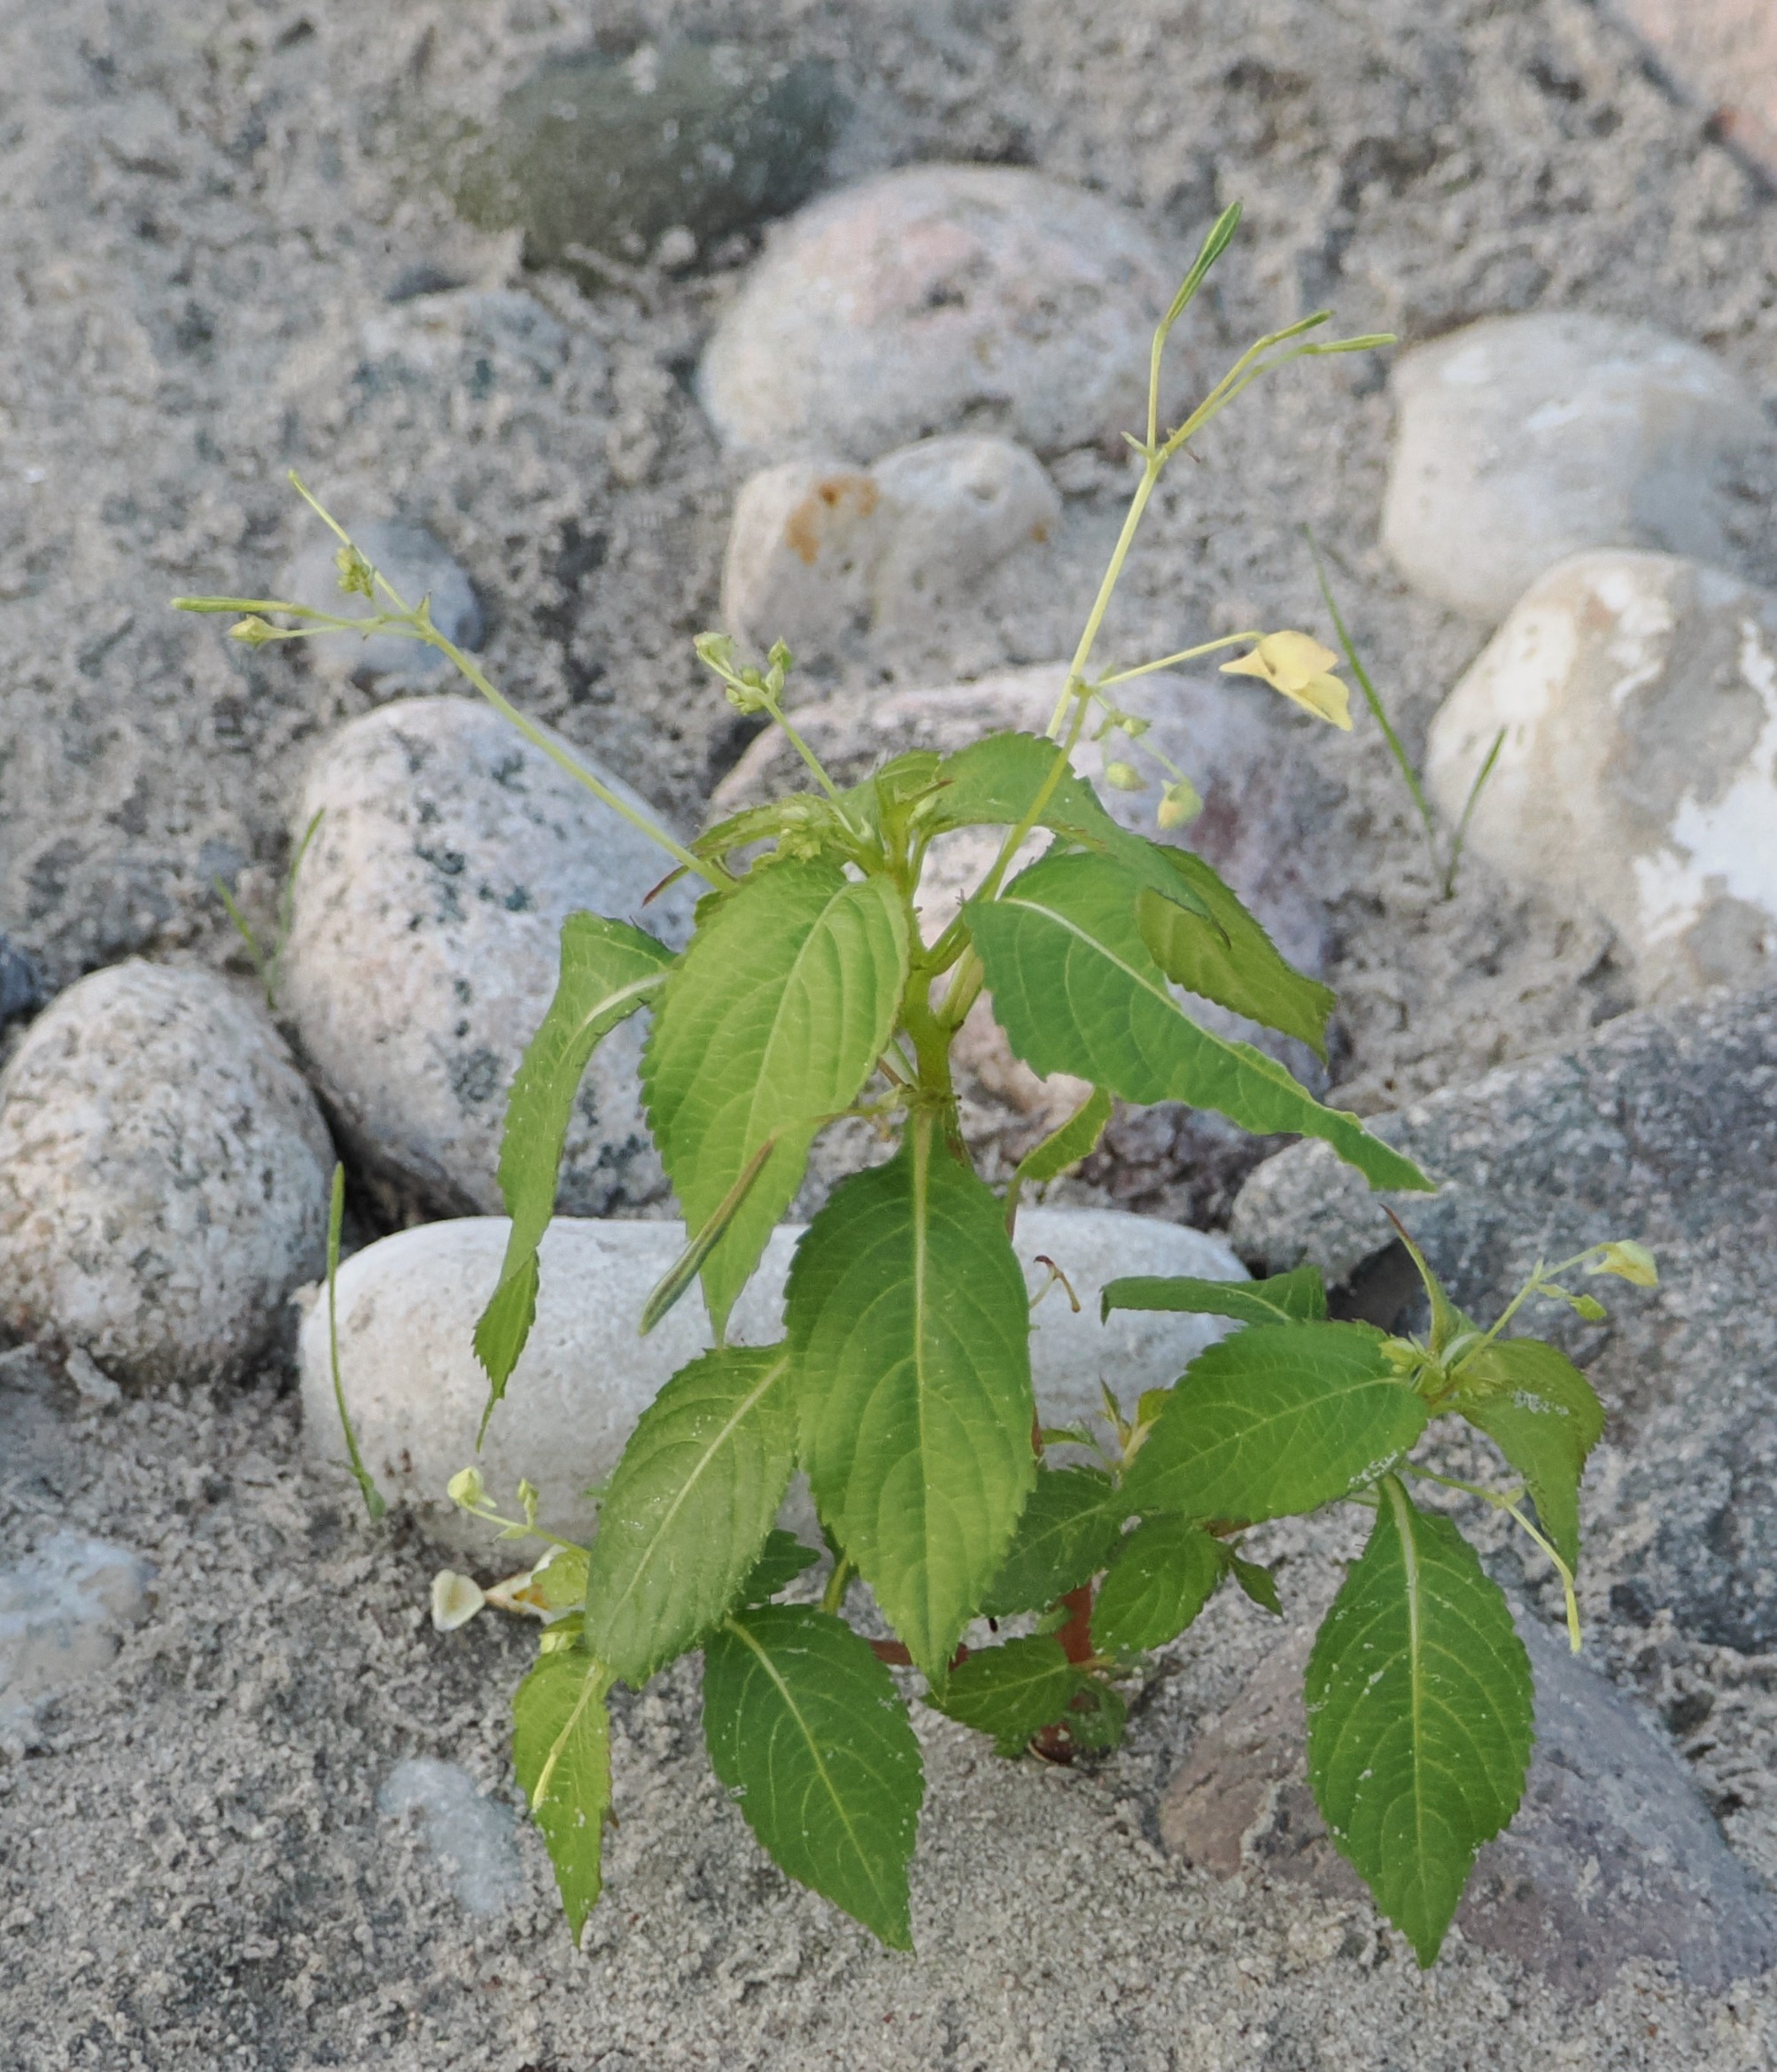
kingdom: Plantae
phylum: Tracheophyta
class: Magnoliopsida
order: Ericales
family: Balsaminaceae
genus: Impatiens
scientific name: Impatiens parviflora
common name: Småblomstret balsamin
